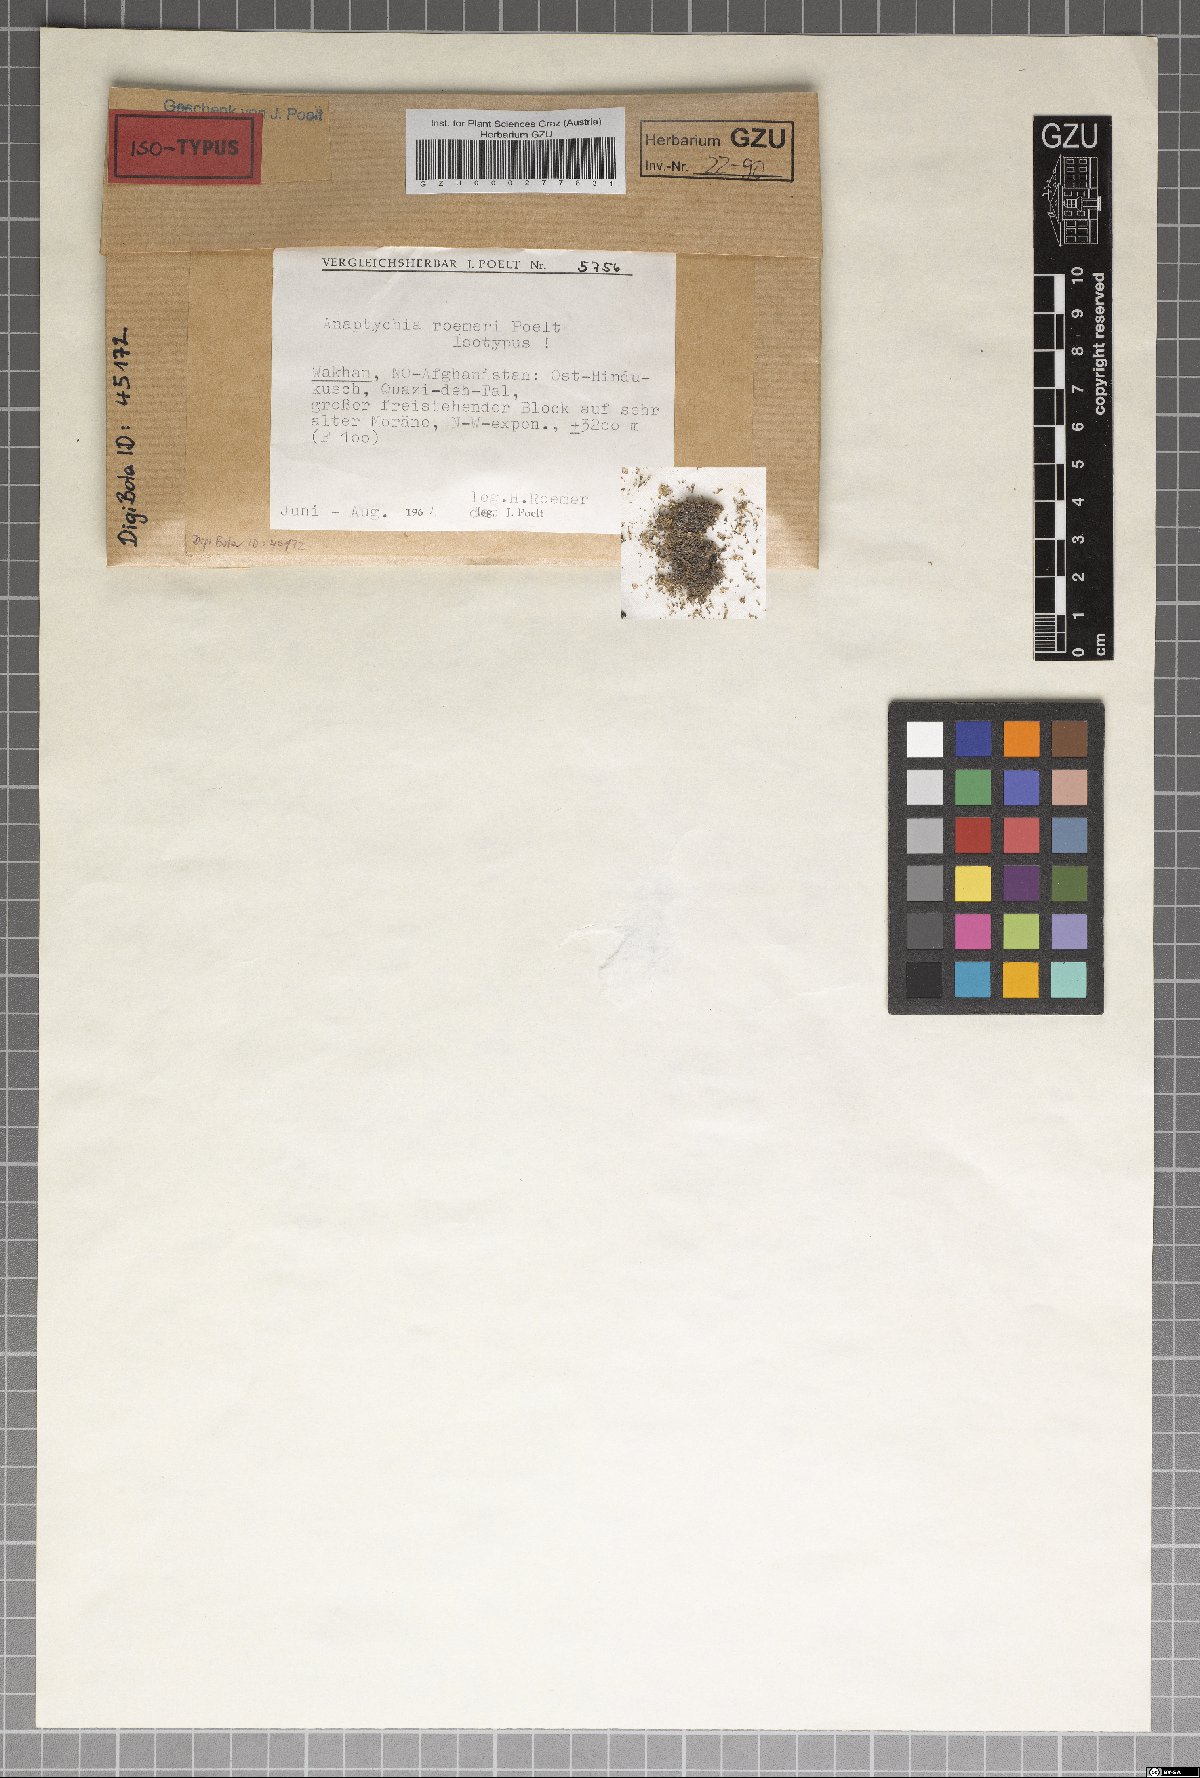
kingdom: Fungi
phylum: Ascomycota
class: Lecanoromycetes
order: Caliciales
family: Physciaceae
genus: Anaptychia
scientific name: Anaptychia
